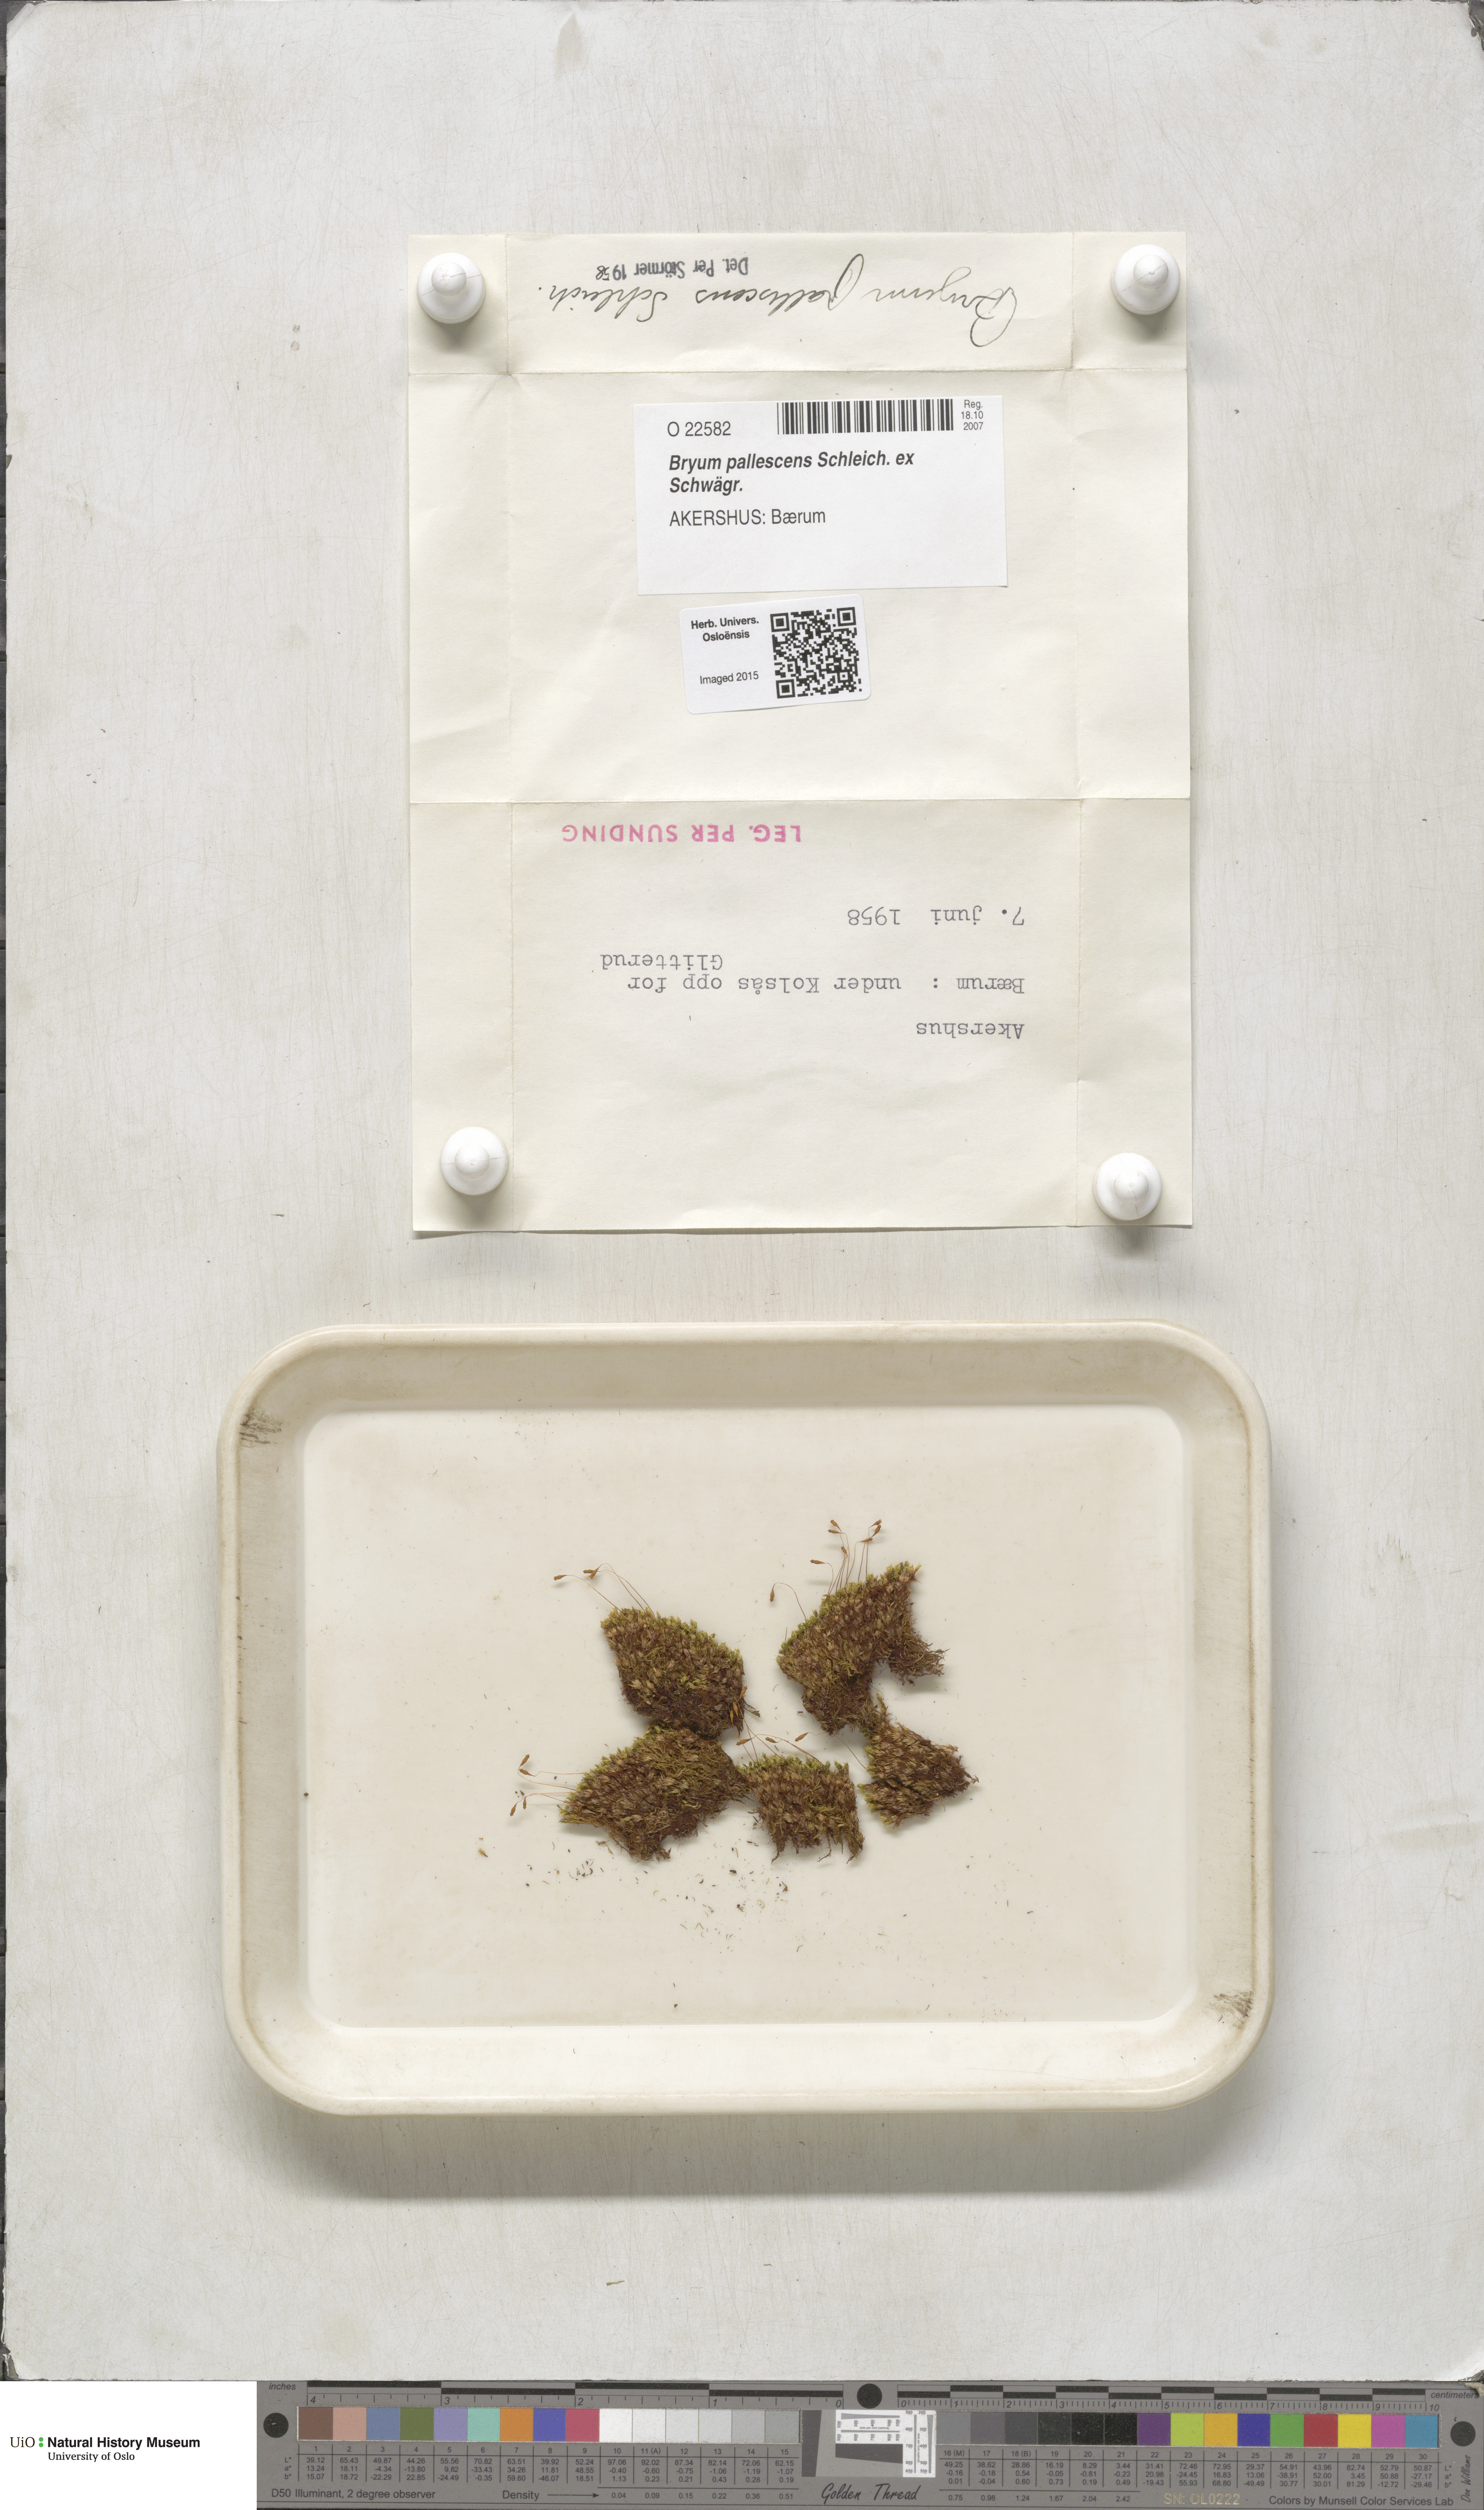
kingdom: Plantae
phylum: Bryophyta
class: Bryopsida
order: Bryales
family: Bryaceae
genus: Ptychostomum
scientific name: Ptychostomum pallescens
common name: Tall-clustered thread-moss
